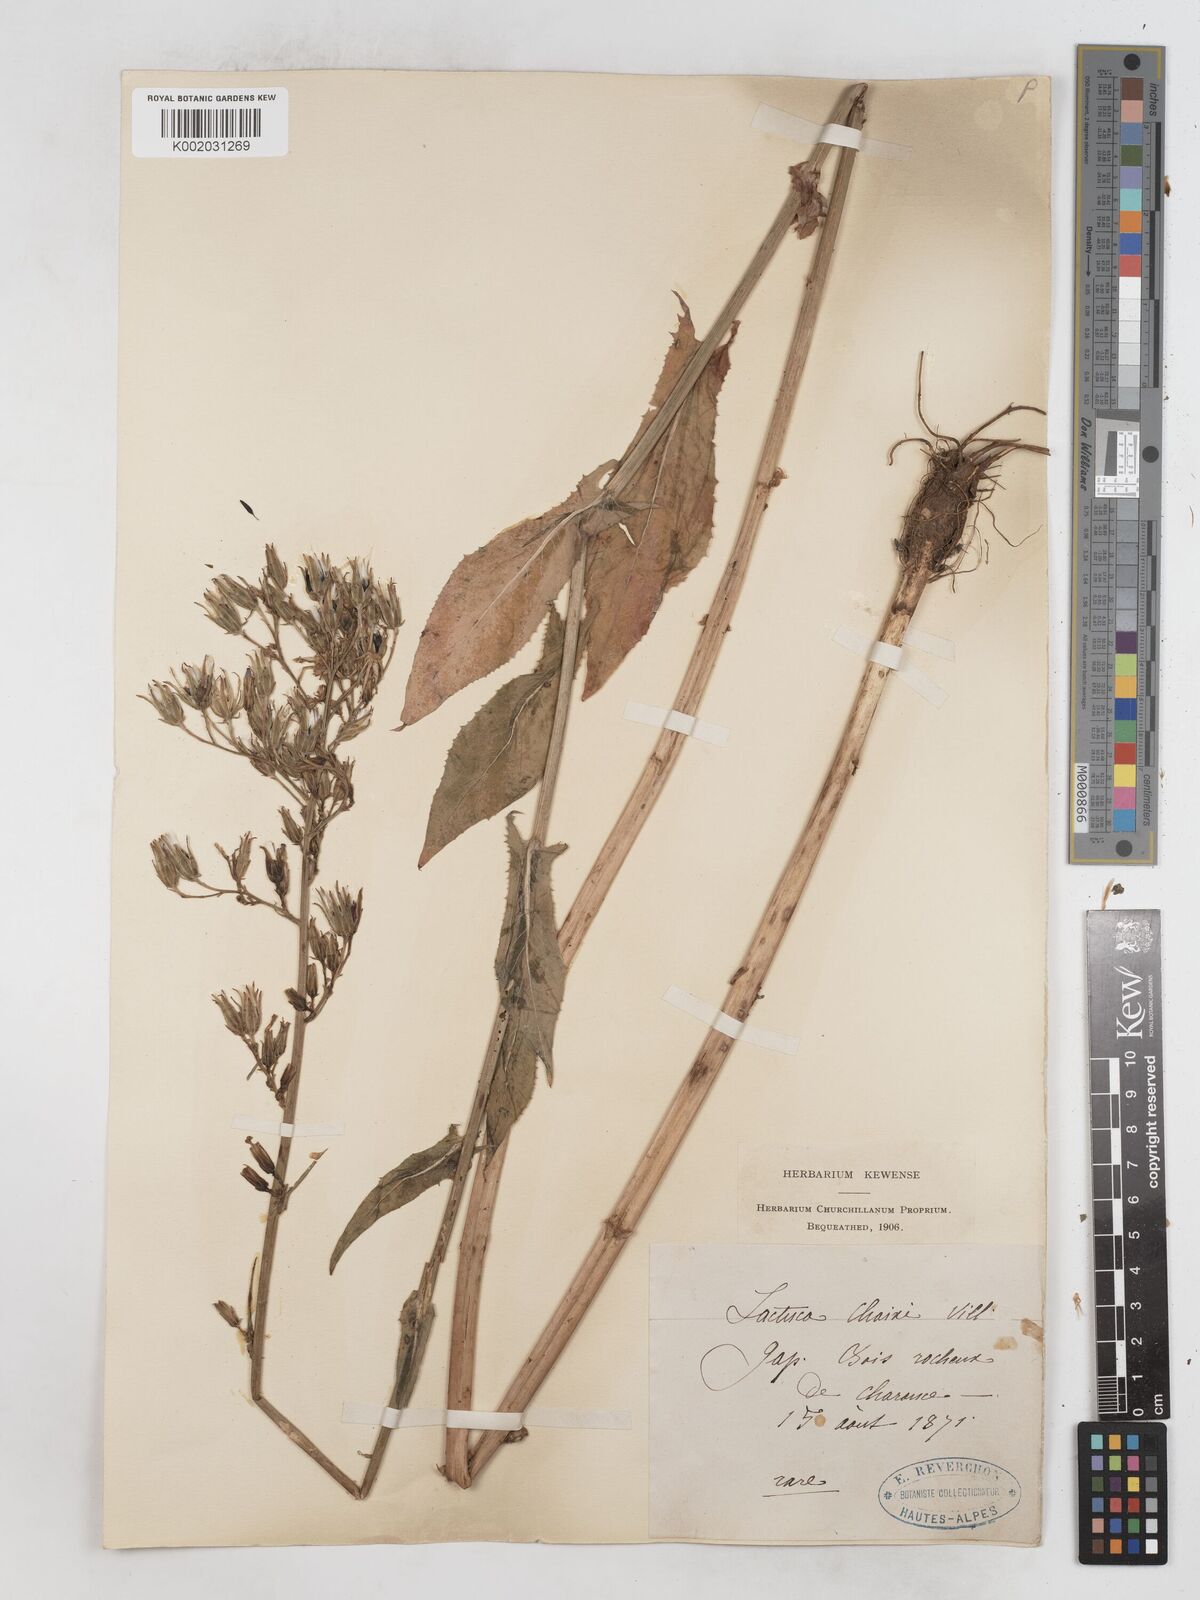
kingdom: Plantae
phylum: Tracheophyta
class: Magnoliopsida
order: Asterales
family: Asteraceae
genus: Lactuca
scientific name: Lactuca quercina
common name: Wild lettuce
